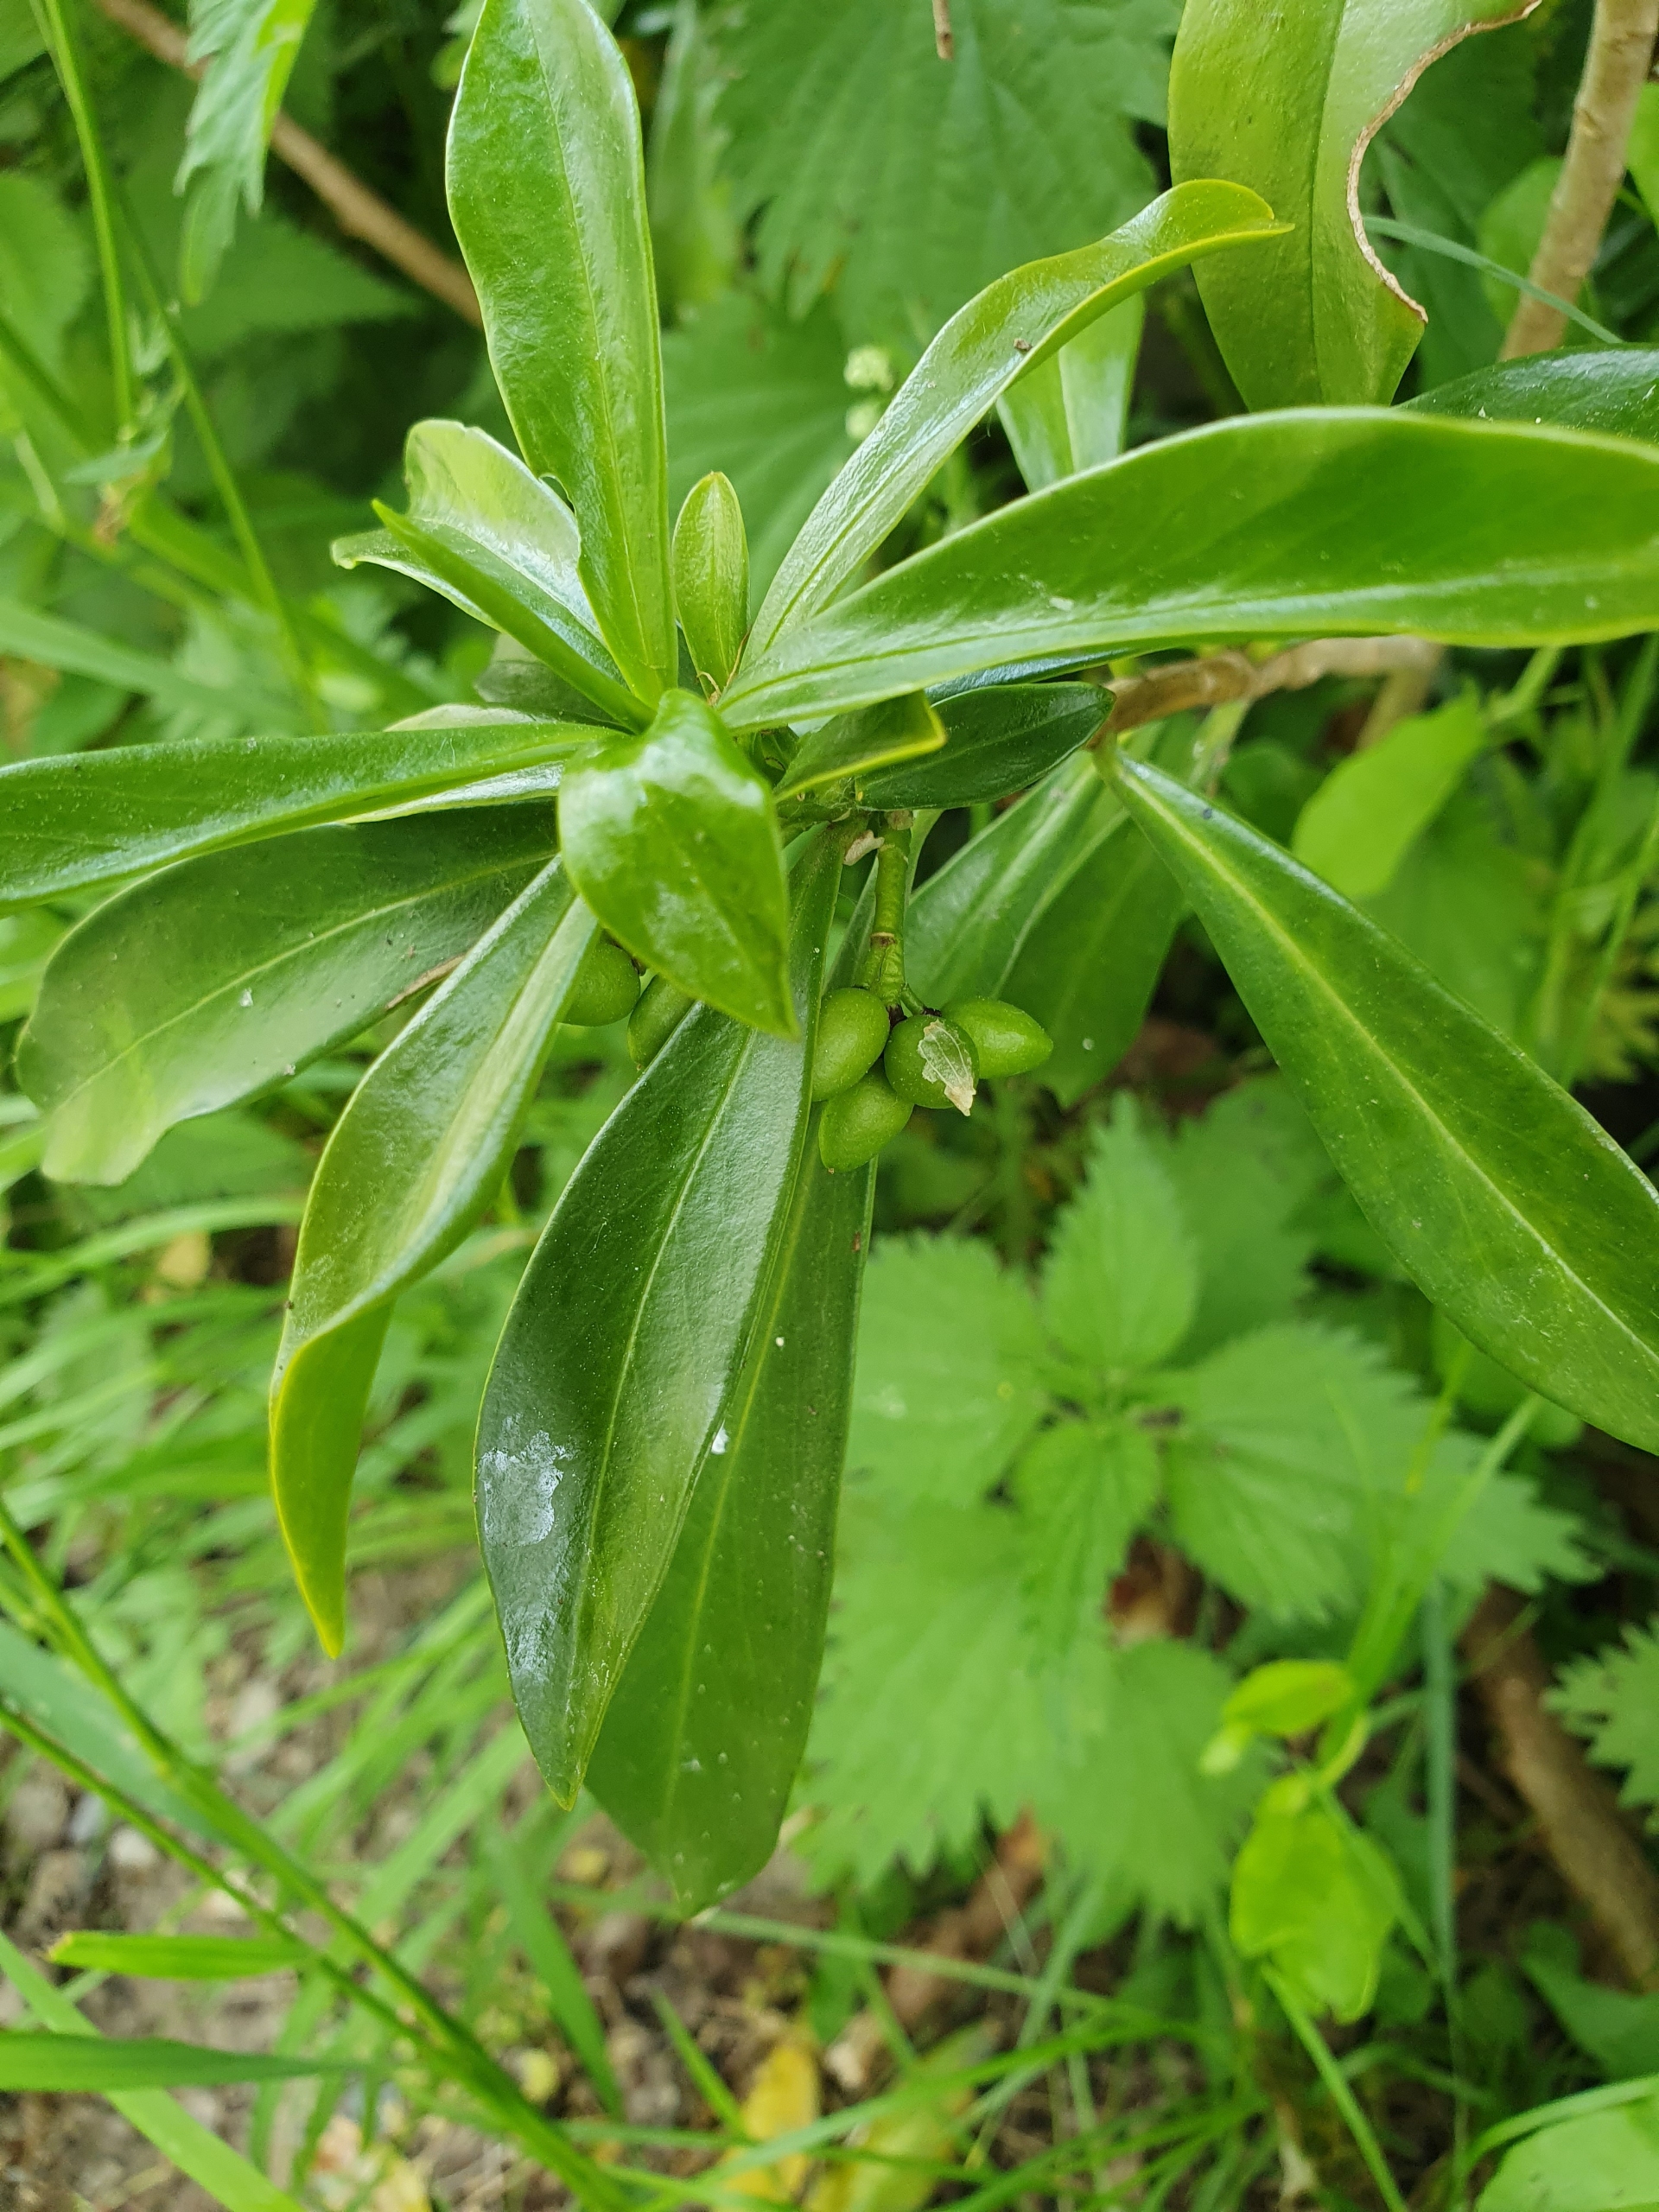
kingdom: Plantae
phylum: Tracheophyta
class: Magnoliopsida
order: Malvales
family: Thymelaeaceae
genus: Daphne
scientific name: Daphne laureola
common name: Laurbær-dafne
